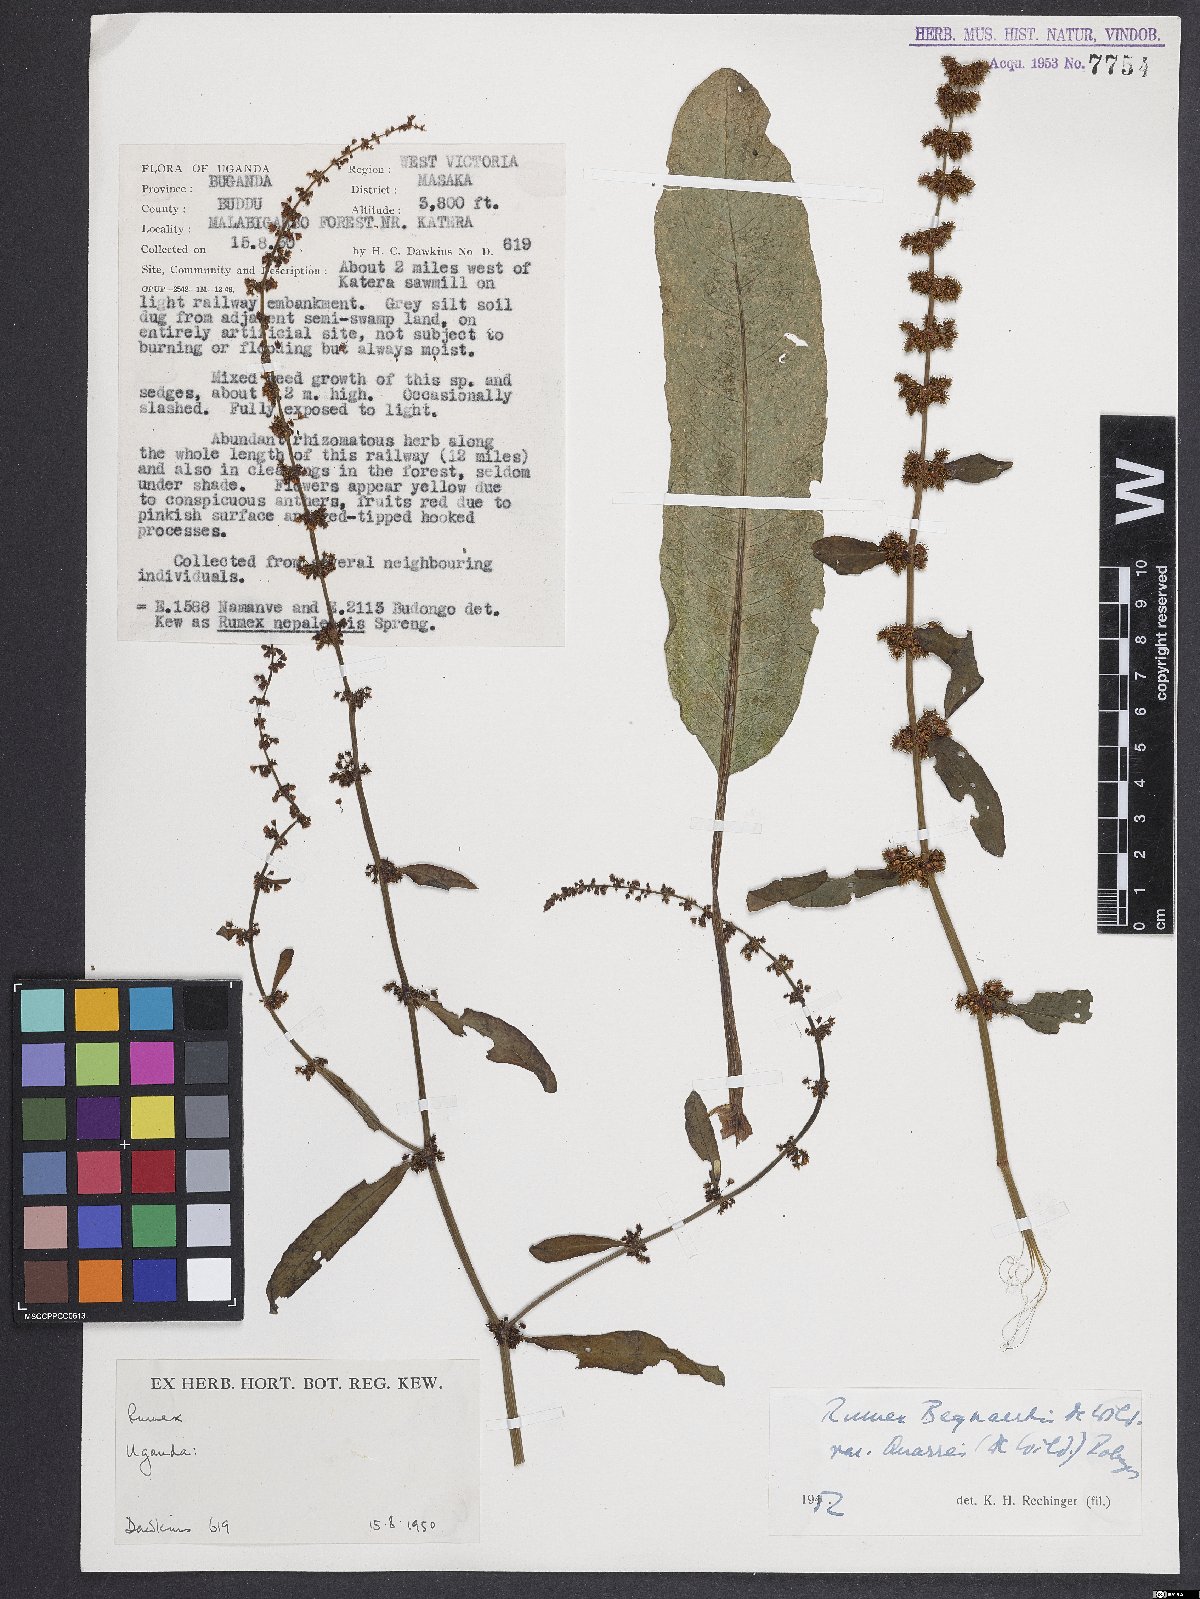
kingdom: Plantae
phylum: Tracheophyta
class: Magnoliopsida
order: Caryophyllales
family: Polygonaceae
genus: Rumex
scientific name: Rumex bequaertii
